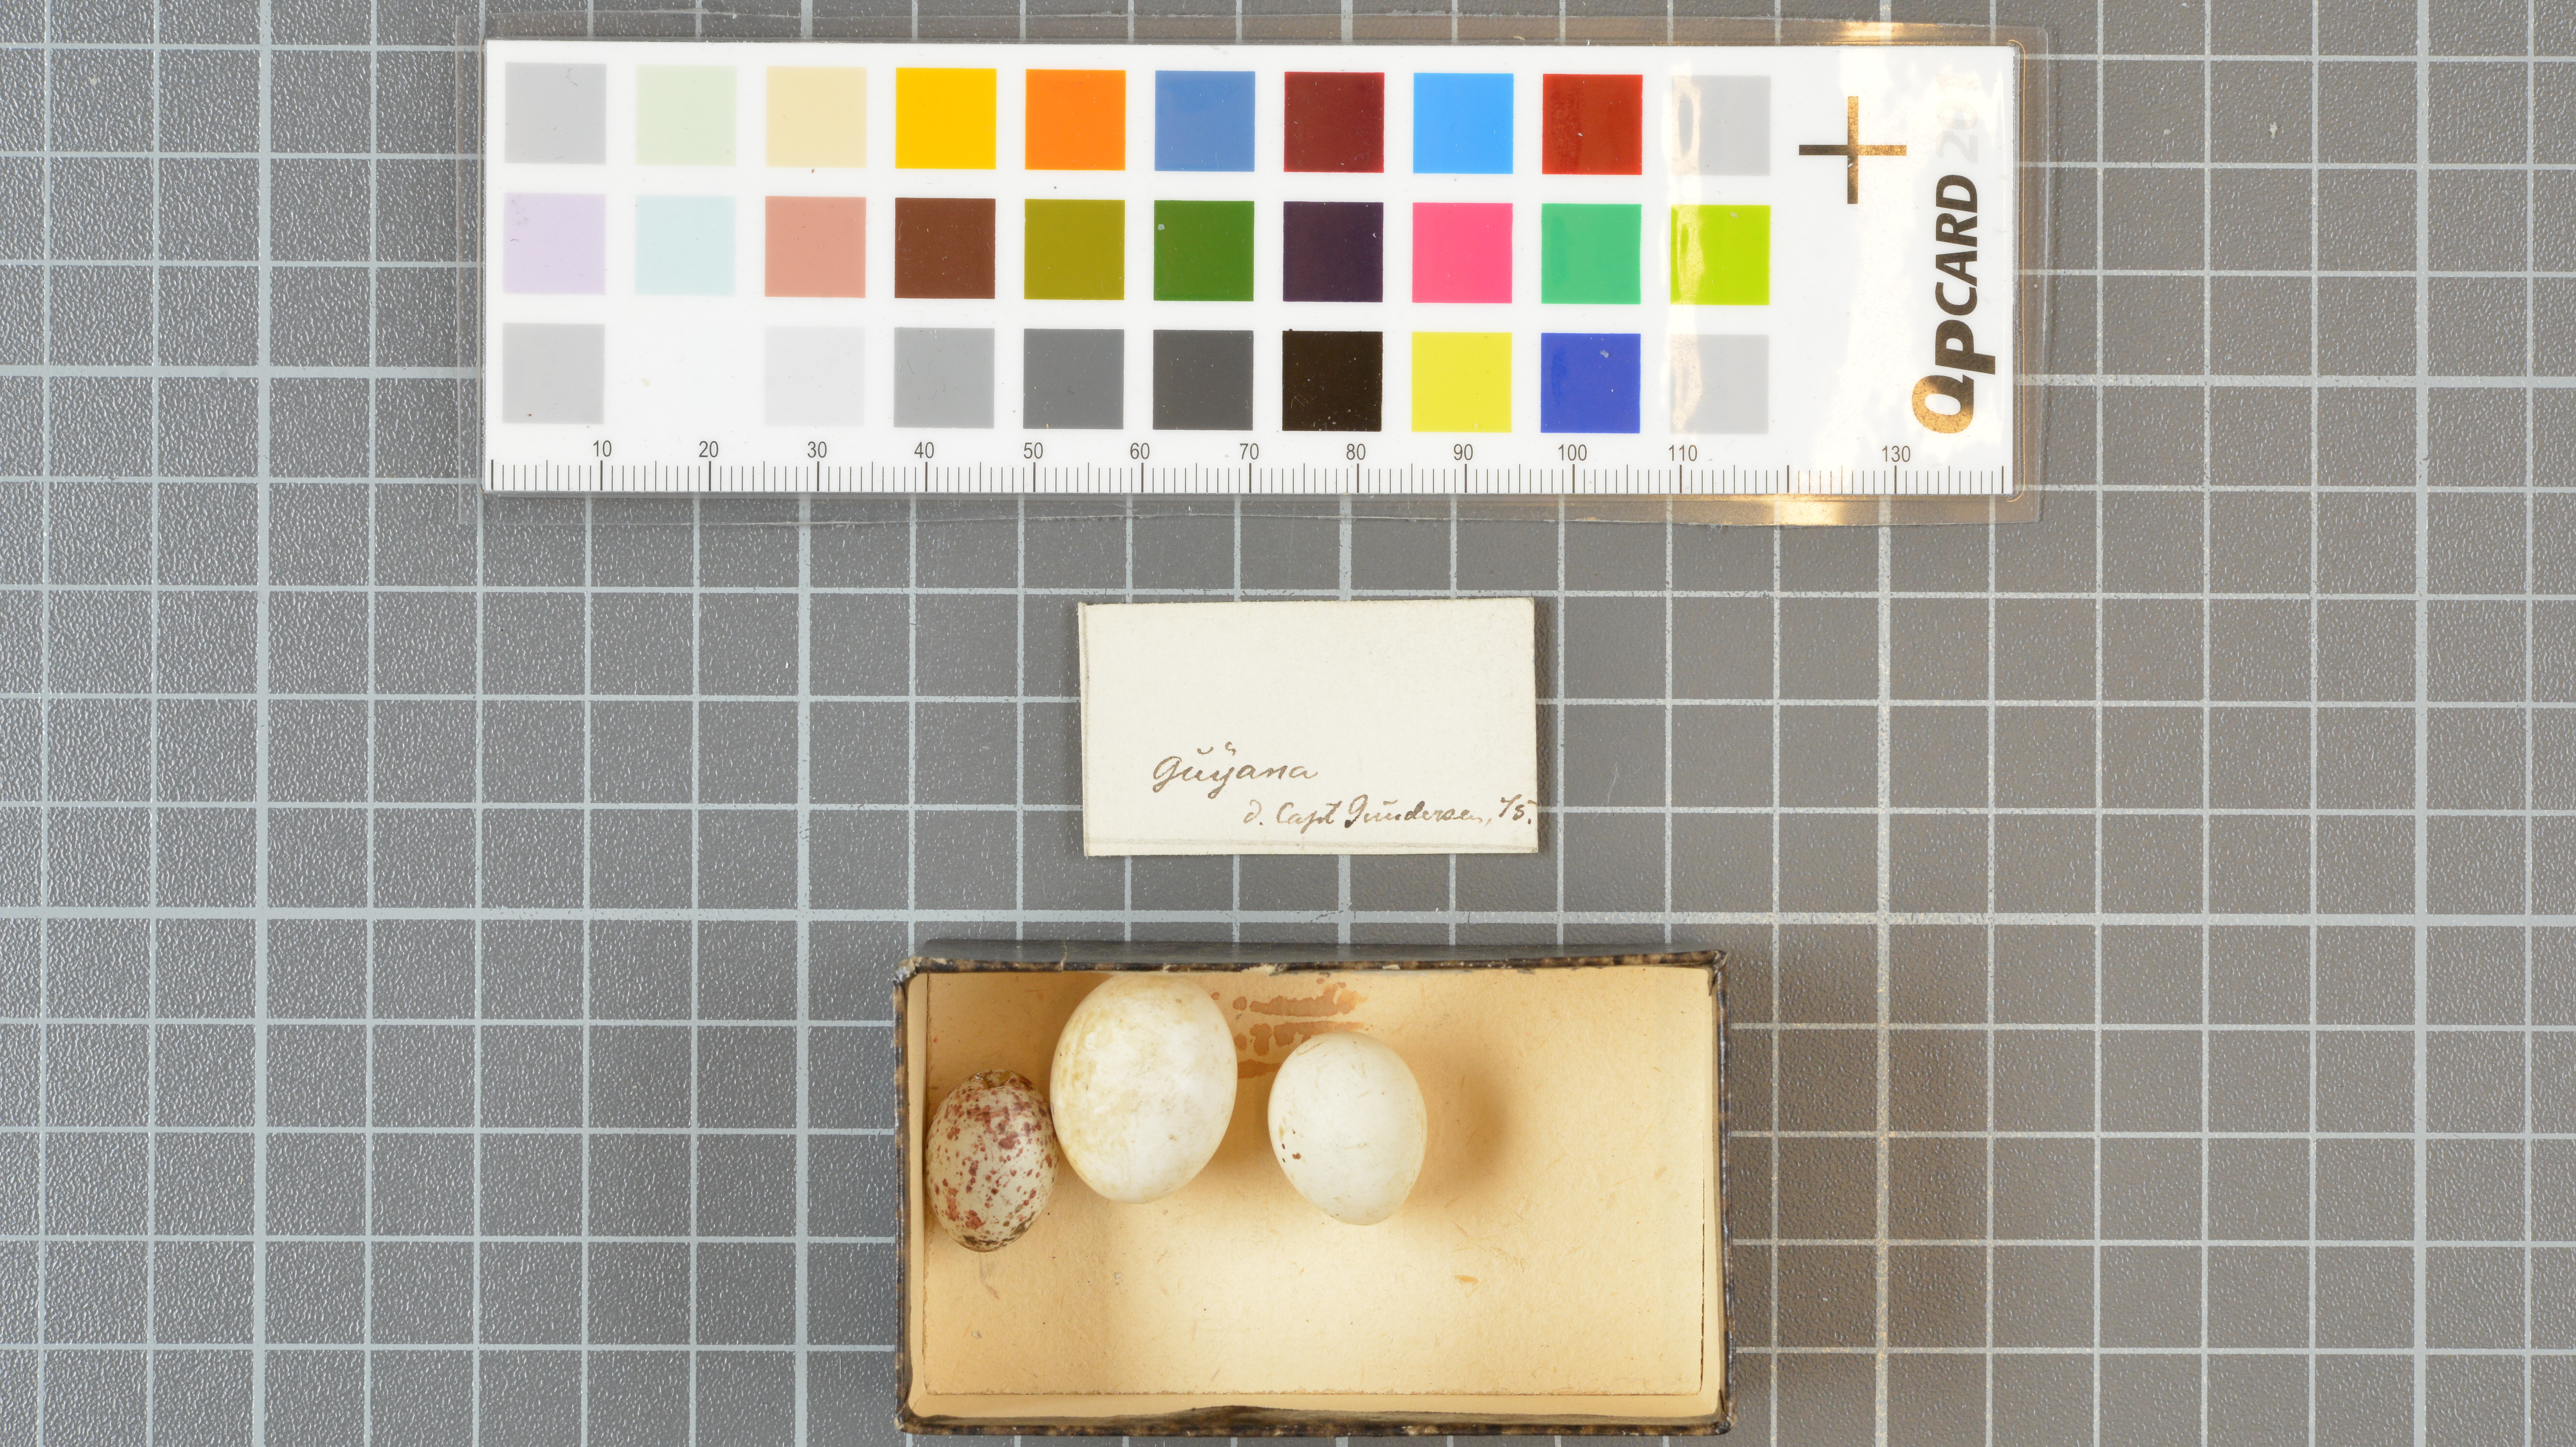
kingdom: Animalia
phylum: Chordata
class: Aves
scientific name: Aves
